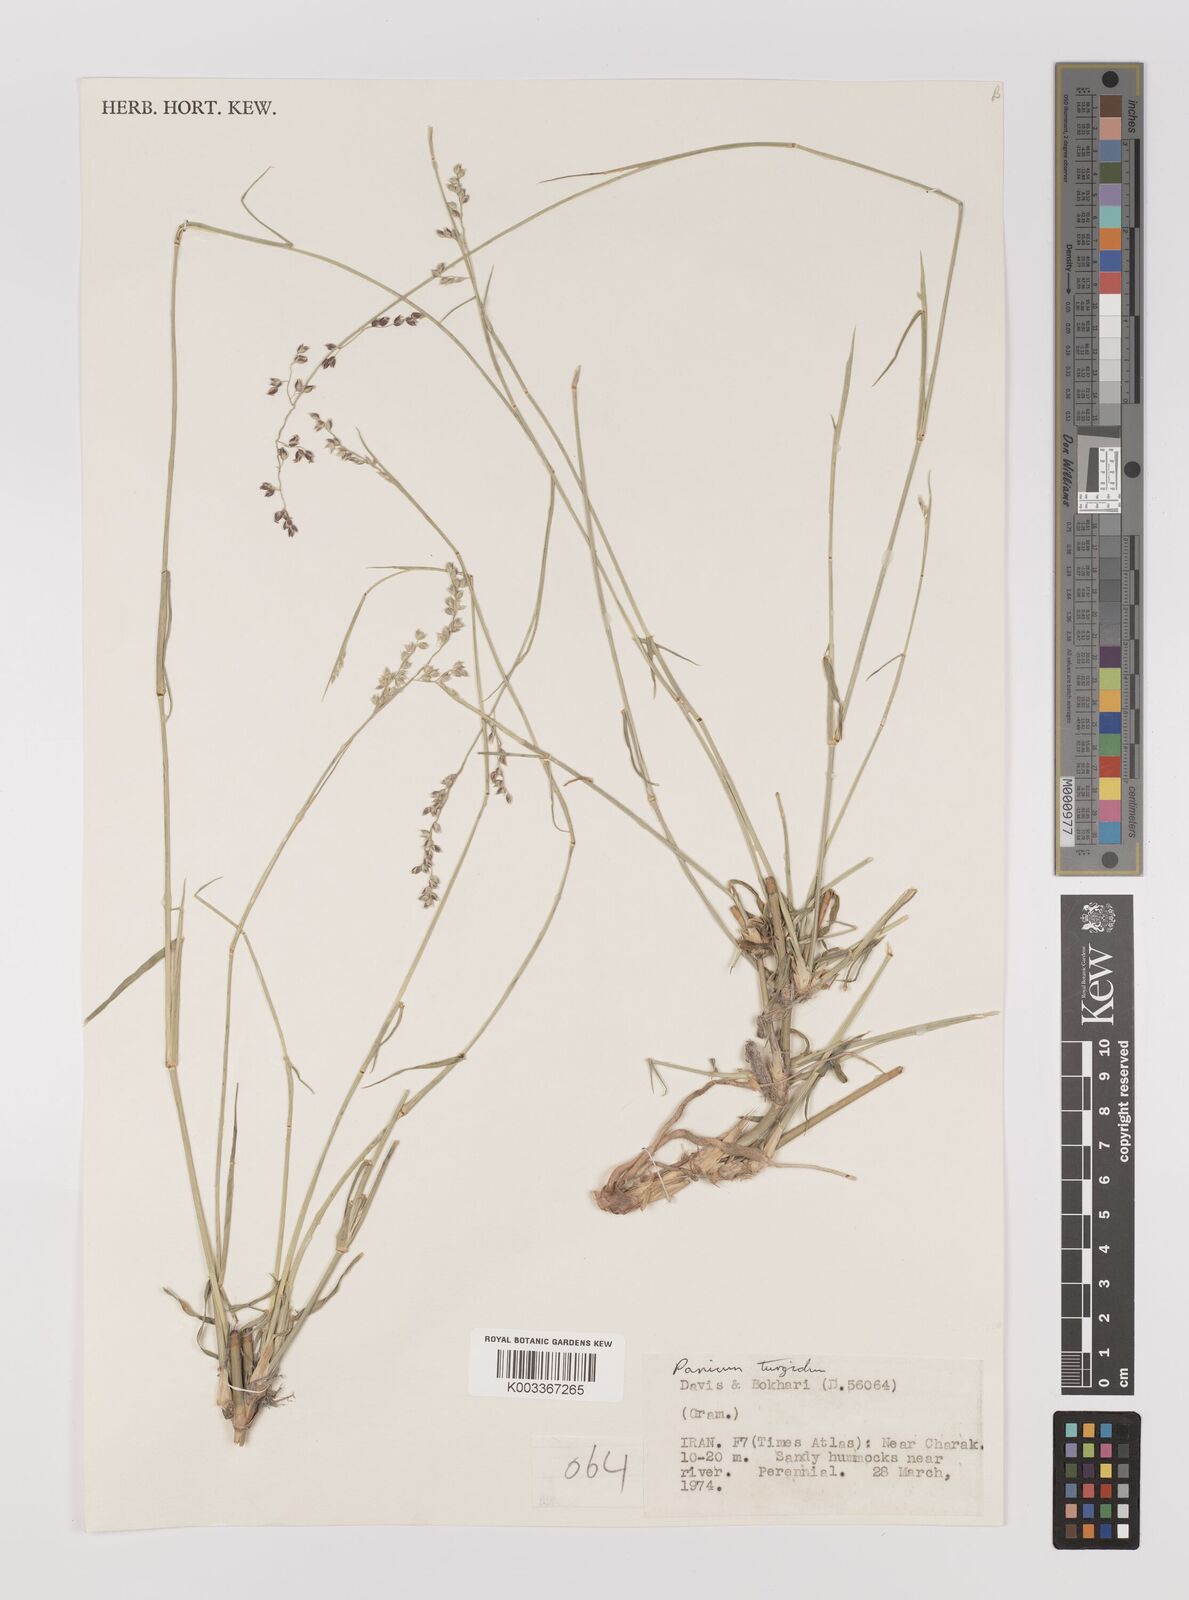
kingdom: Plantae
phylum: Tracheophyta
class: Liliopsida
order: Poales
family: Poaceae
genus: Panicum
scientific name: Panicum turgidum
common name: Desert grass
